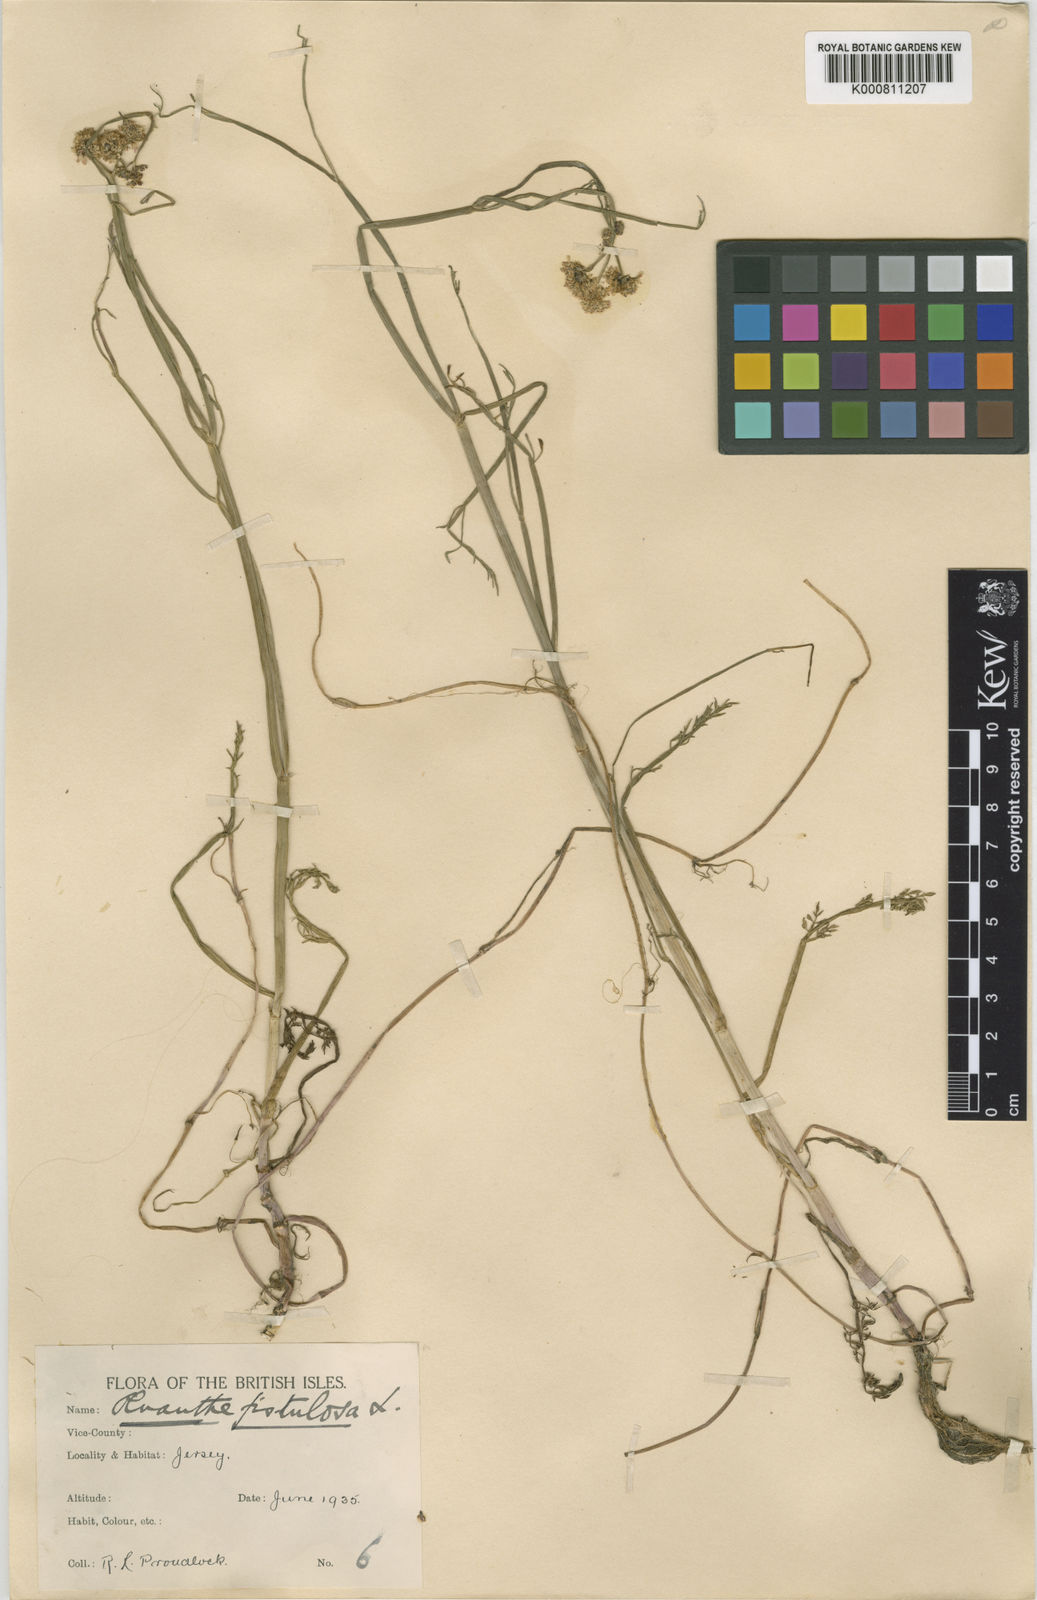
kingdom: Plantae
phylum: Tracheophyta
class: Magnoliopsida
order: Apiales
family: Apiaceae
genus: Oenanthe
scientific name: Oenanthe fistulosa
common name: Tubular water-dropwort
